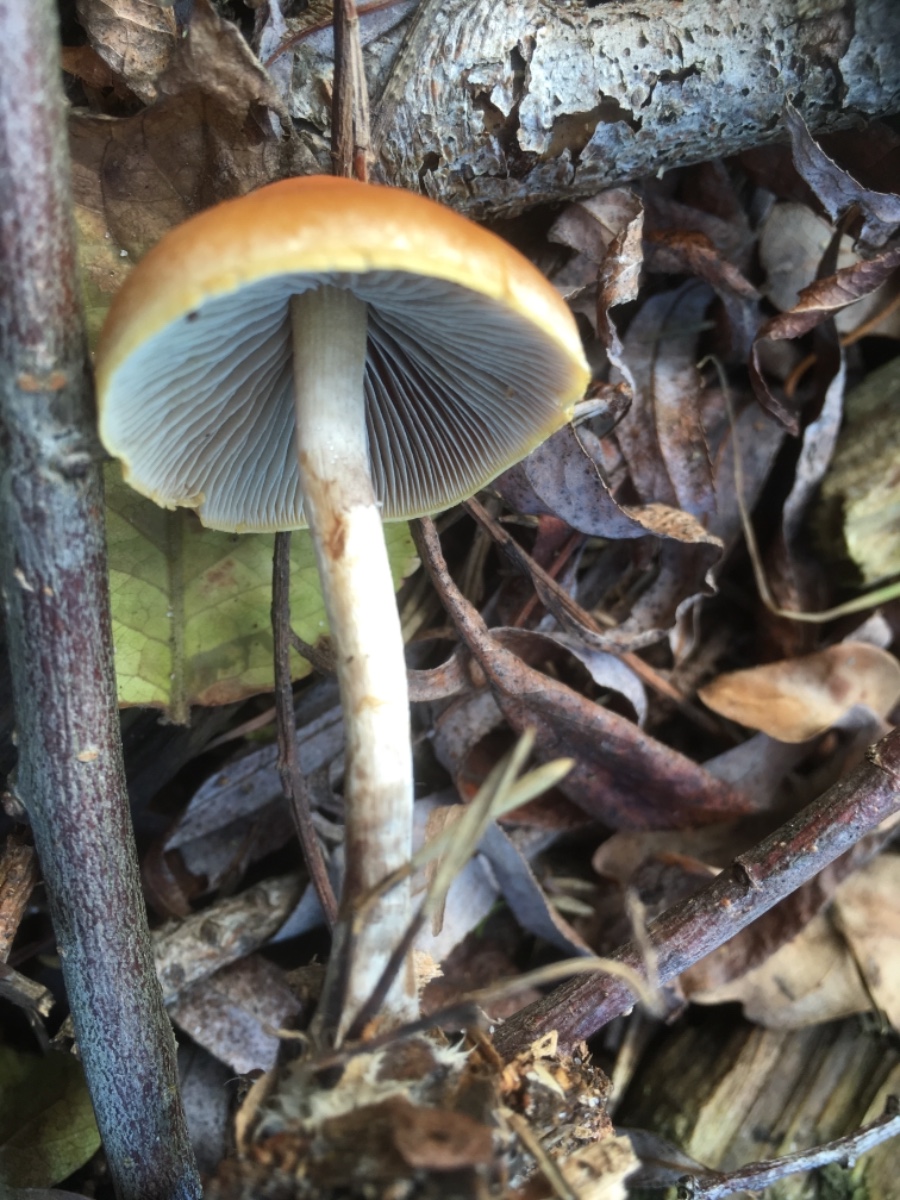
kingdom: Fungi
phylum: Basidiomycota
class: Agaricomycetes
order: Agaricales
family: Strophariaceae
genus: Hypholoma
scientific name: Hypholoma marginatum
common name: enlig svovlhat
